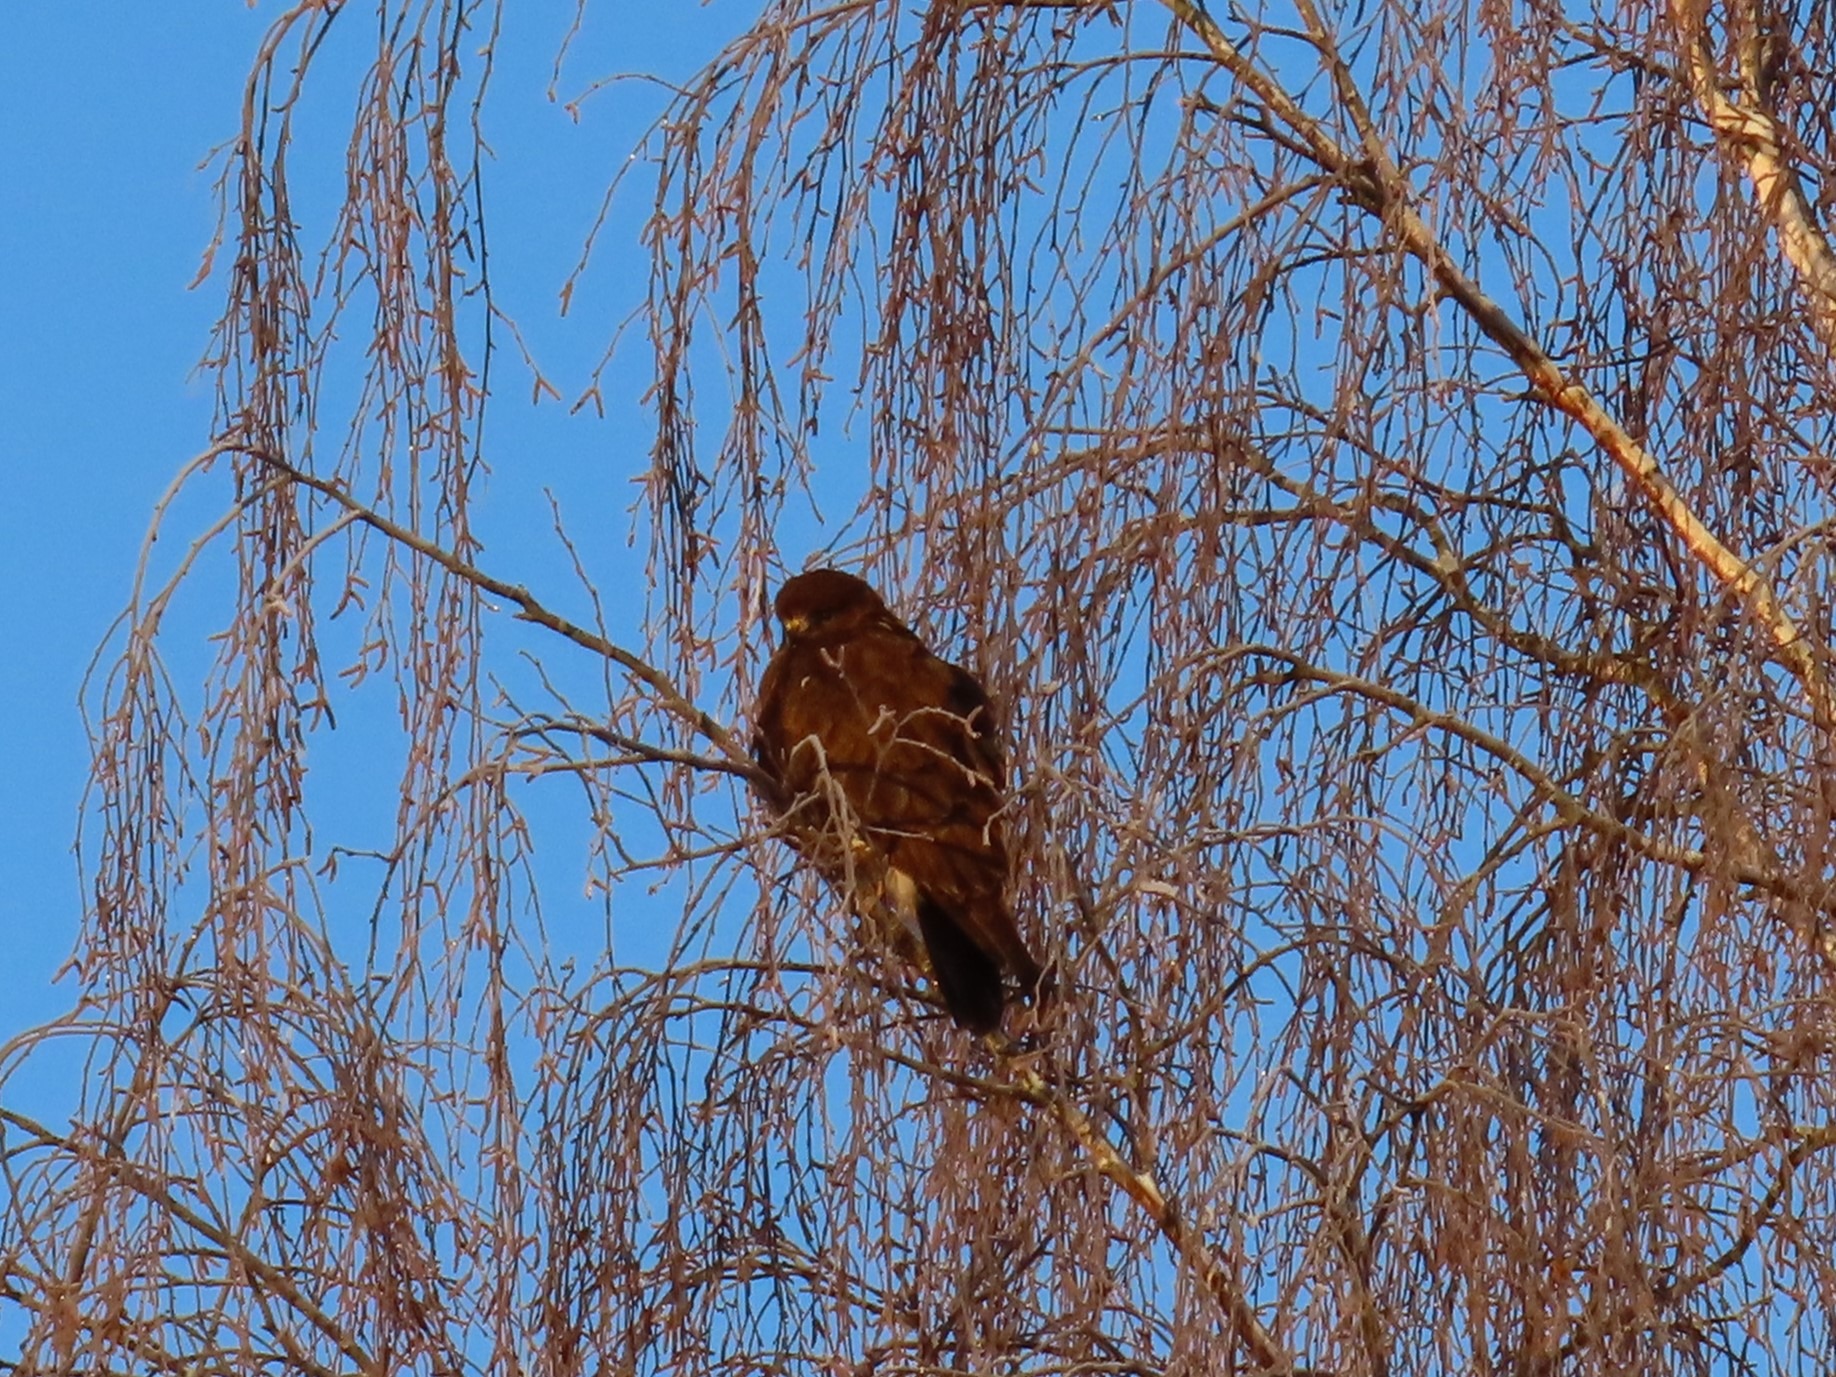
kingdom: Animalia
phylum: Chordata
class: Aves
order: Accipitriformes
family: Accipitridae
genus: Buteo
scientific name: Buteo buteo
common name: Musvåge
